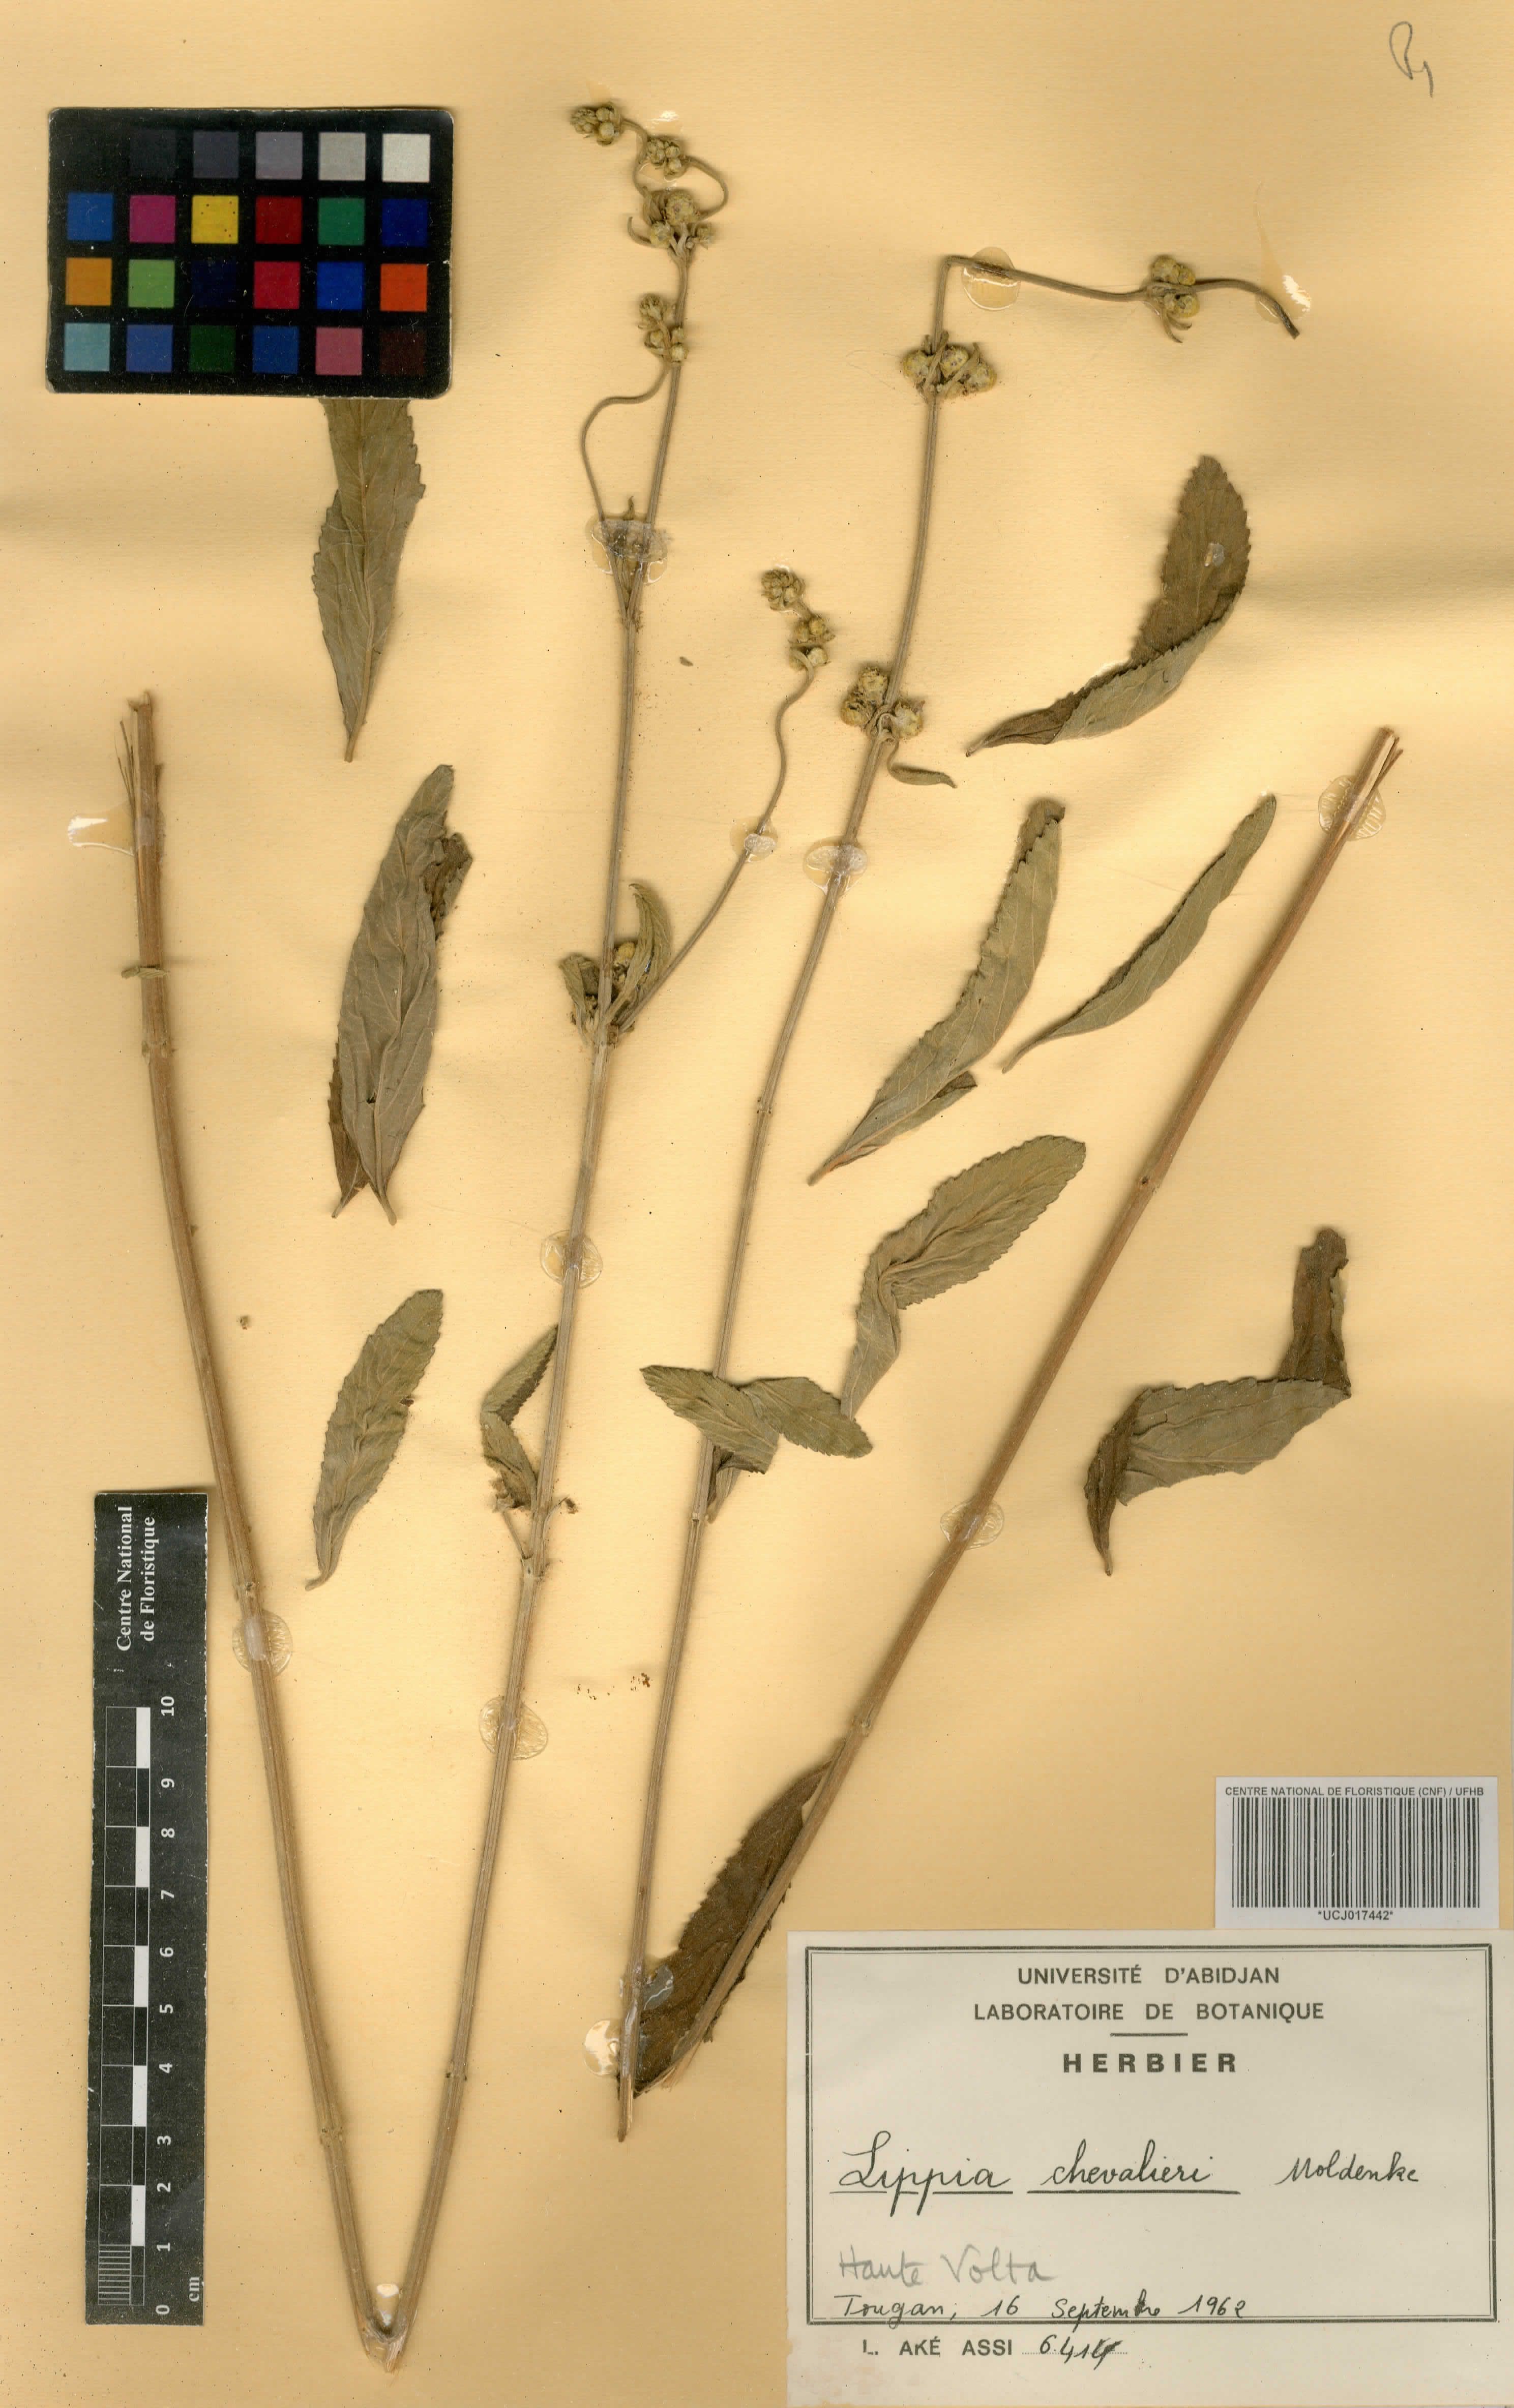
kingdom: Plantae
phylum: Tracheophyta
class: Magnoliopsida
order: Lamiales
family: Verbenaceae
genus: Lippia
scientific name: Lippia chevalieri
